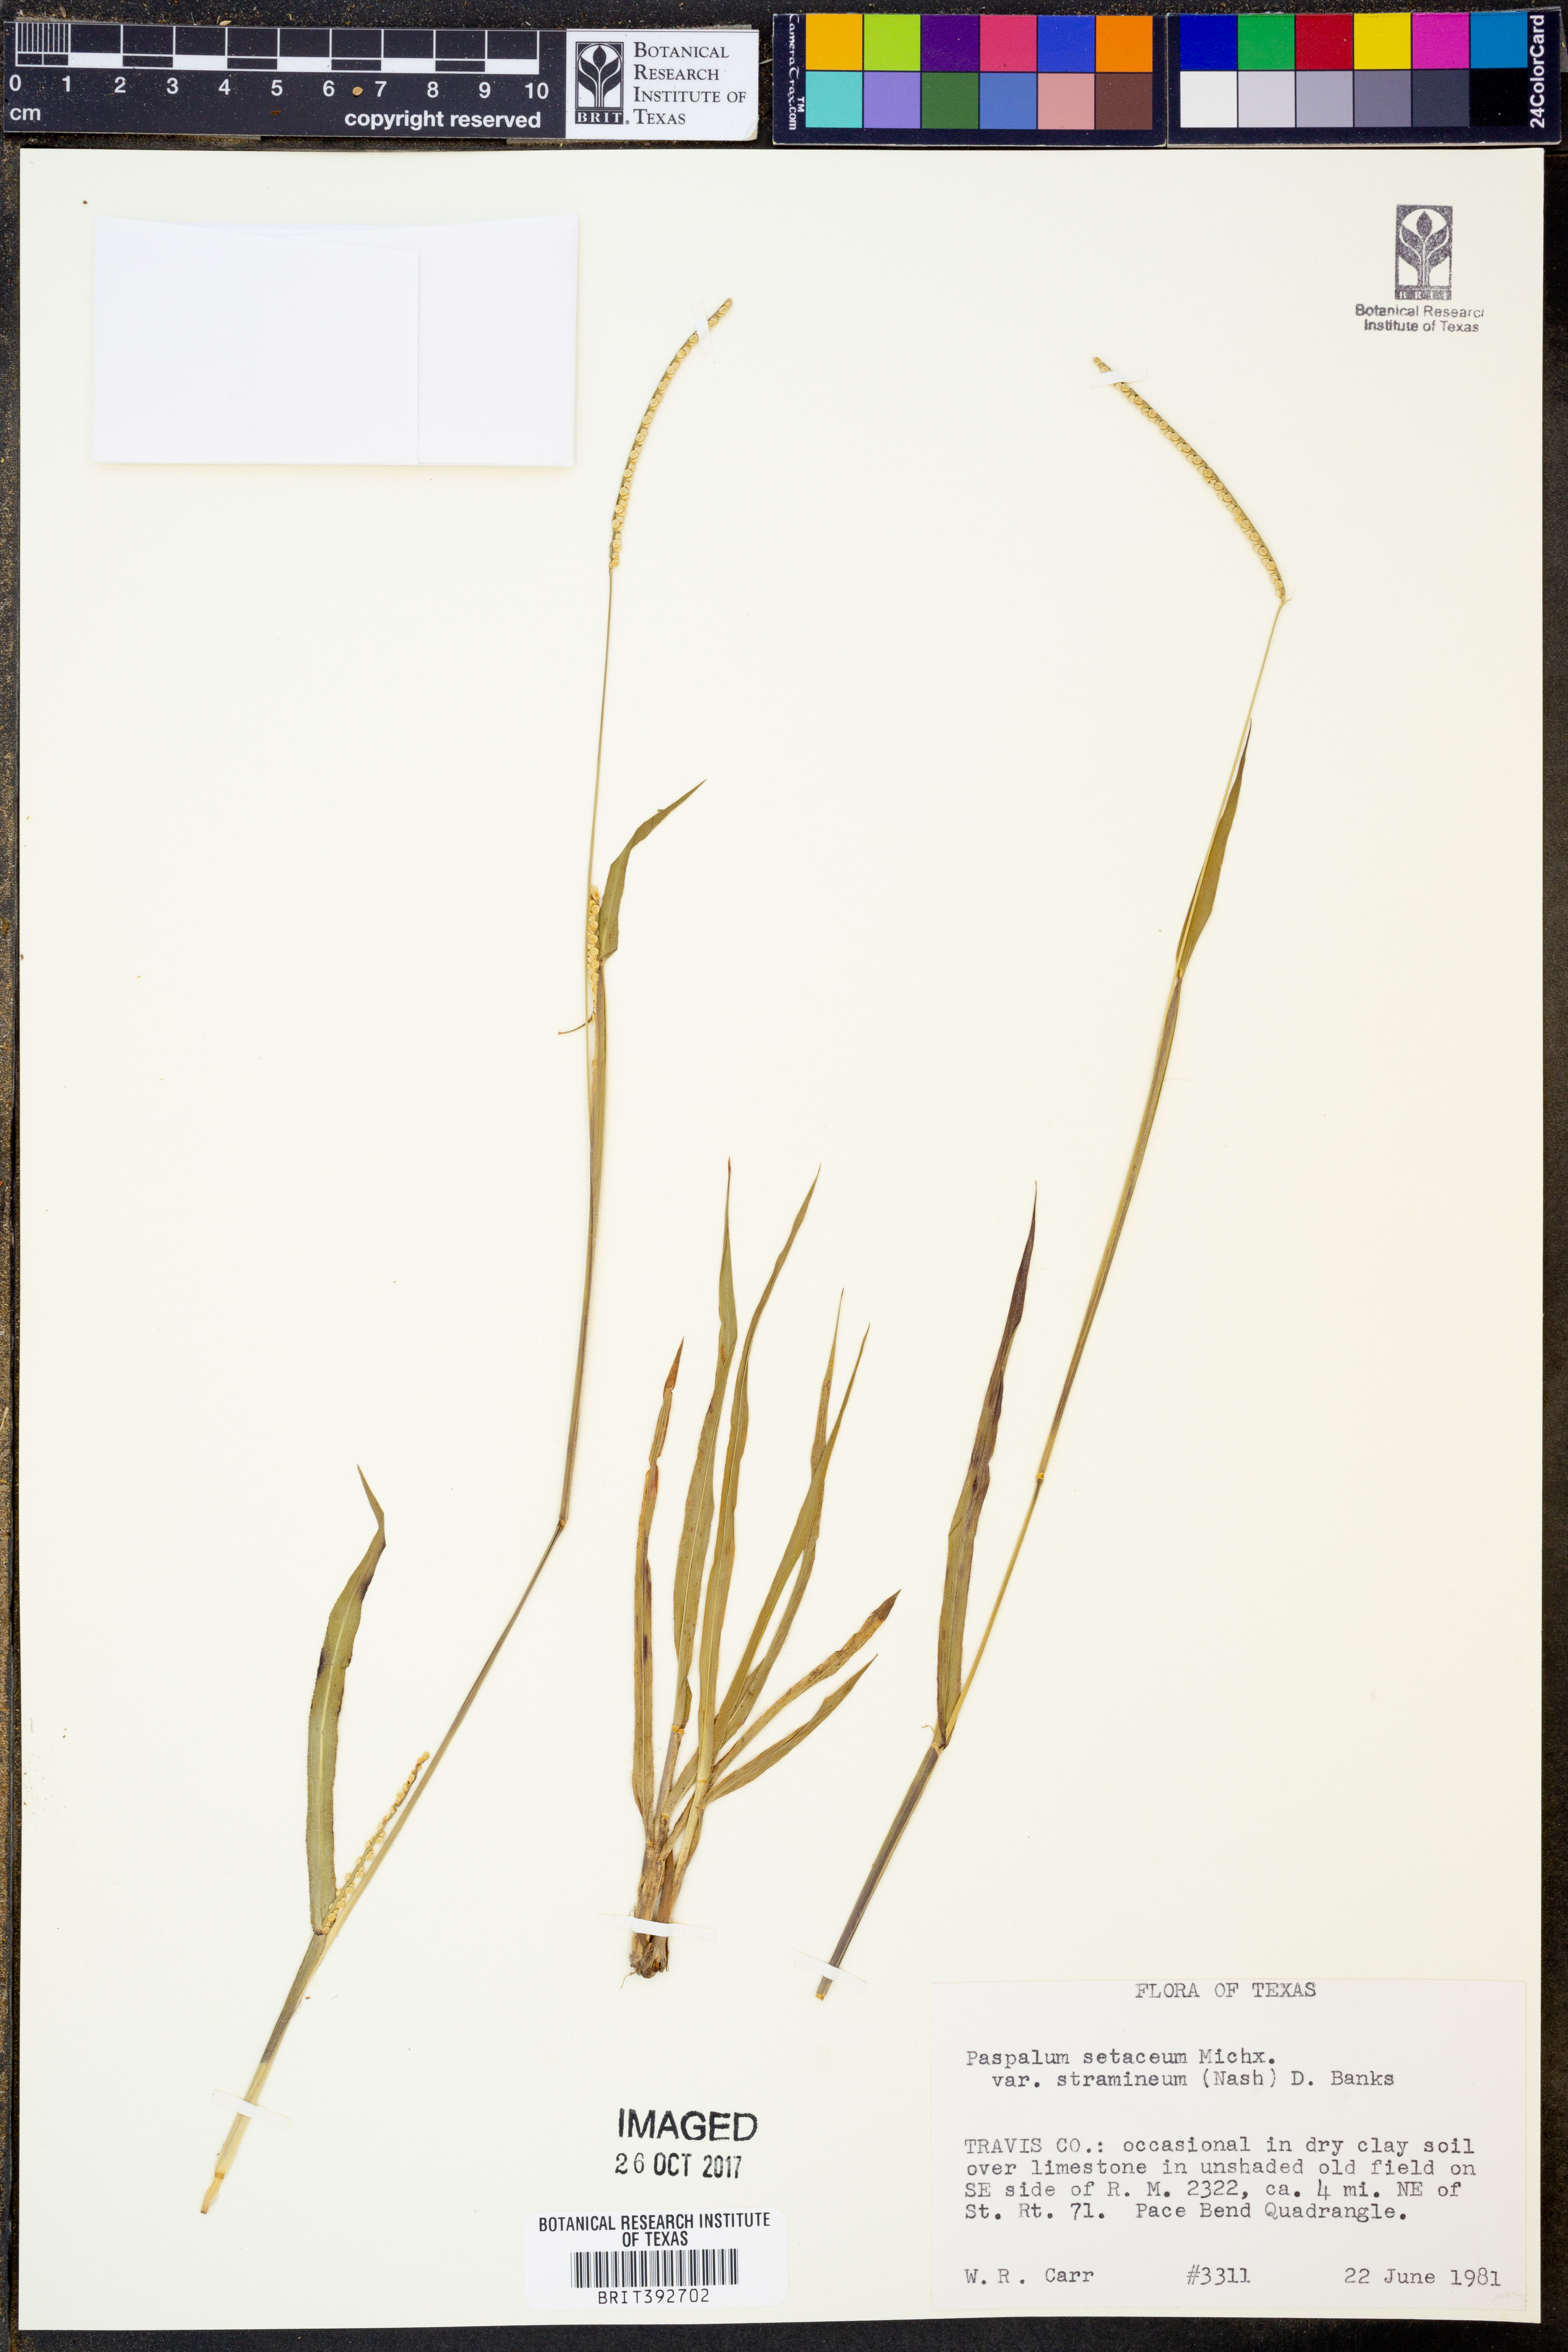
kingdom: Plantae
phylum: Tracheophyta
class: Liliopsida
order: Poales
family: Poaceae
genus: Paspalum
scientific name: Paspalum setaceum
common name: Slender paspalum
